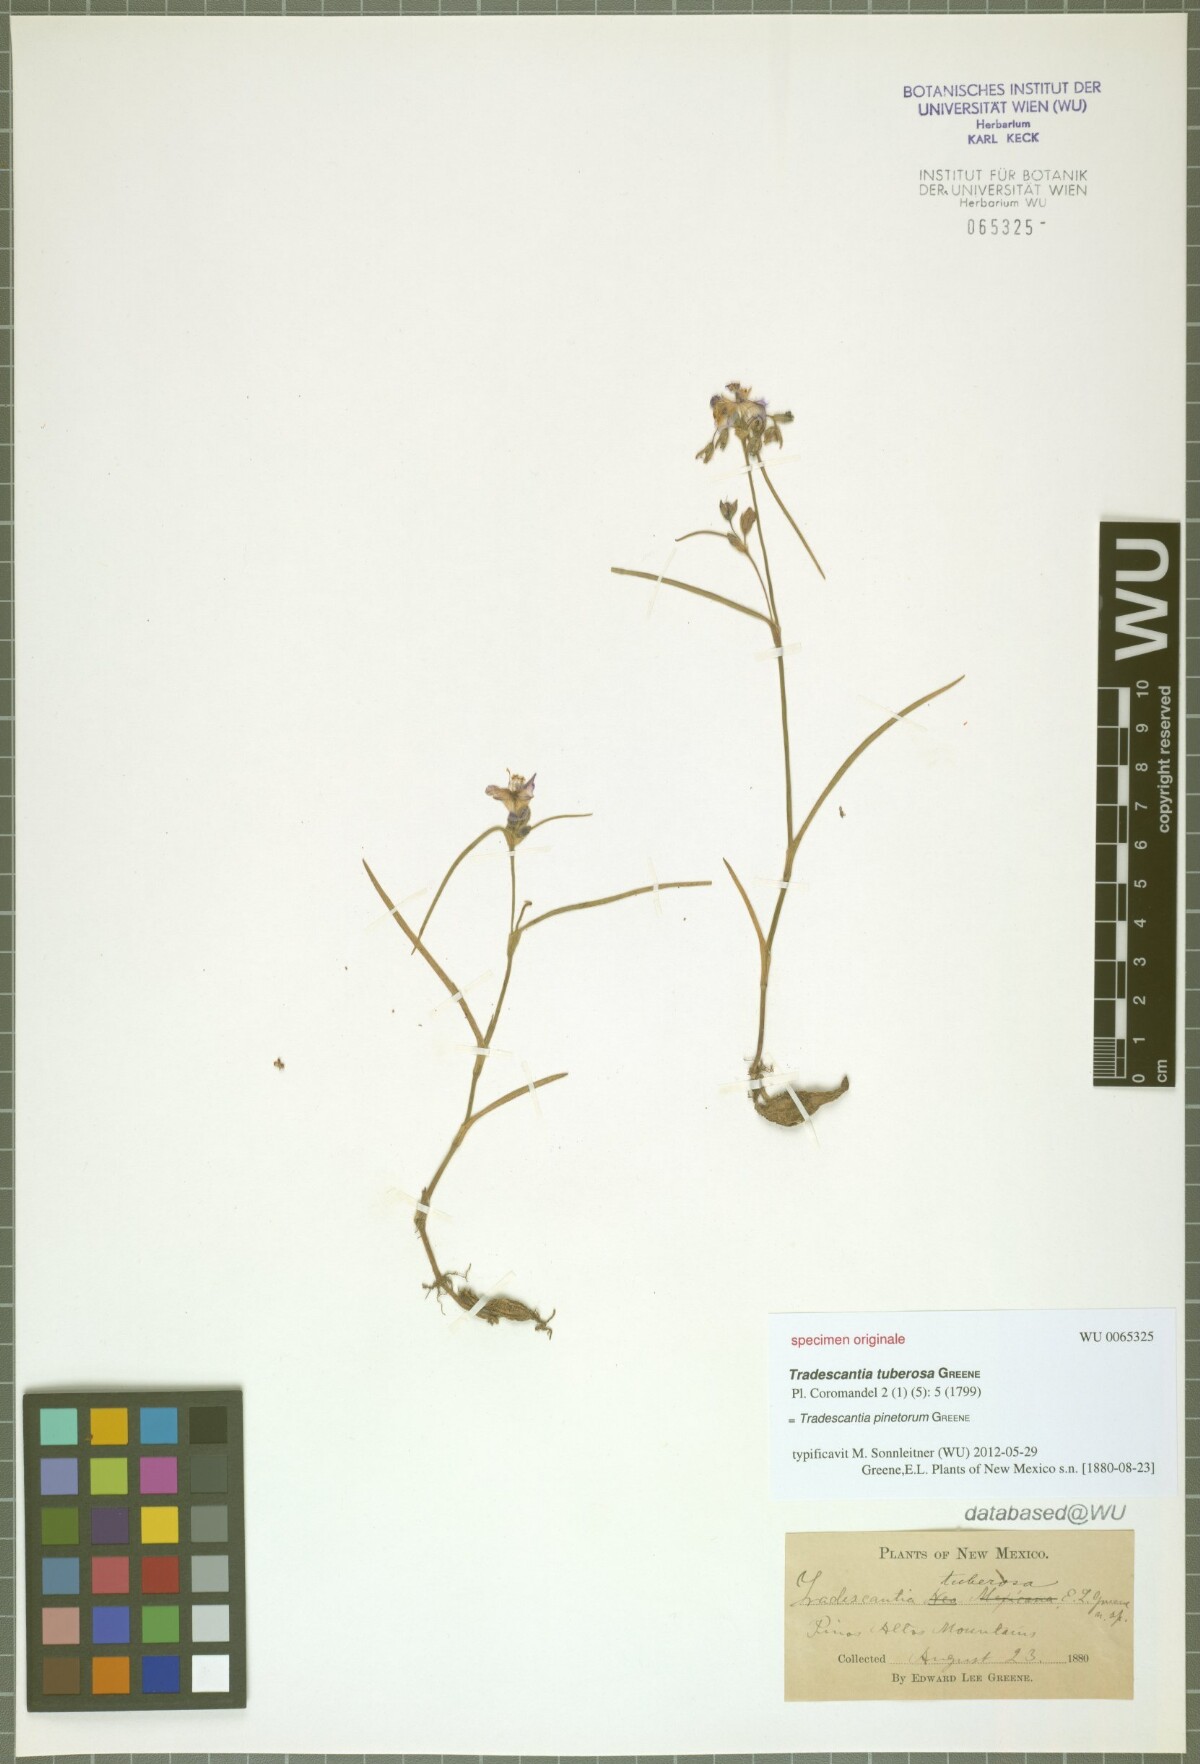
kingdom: Plantae
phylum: Tracheophyta
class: Liliopsida
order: Commelinales
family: Commelinaceae
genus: Tradescantia
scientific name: Tradescantia pinetorum
